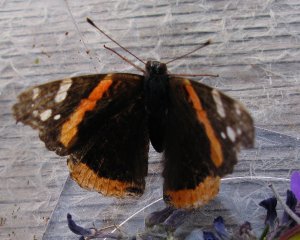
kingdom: Animalia
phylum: Arthropoda
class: Insecta
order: Lepidoptera
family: Nymphalidae
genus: Vanessa
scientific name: Vanessa atalanta
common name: Red Admiral
